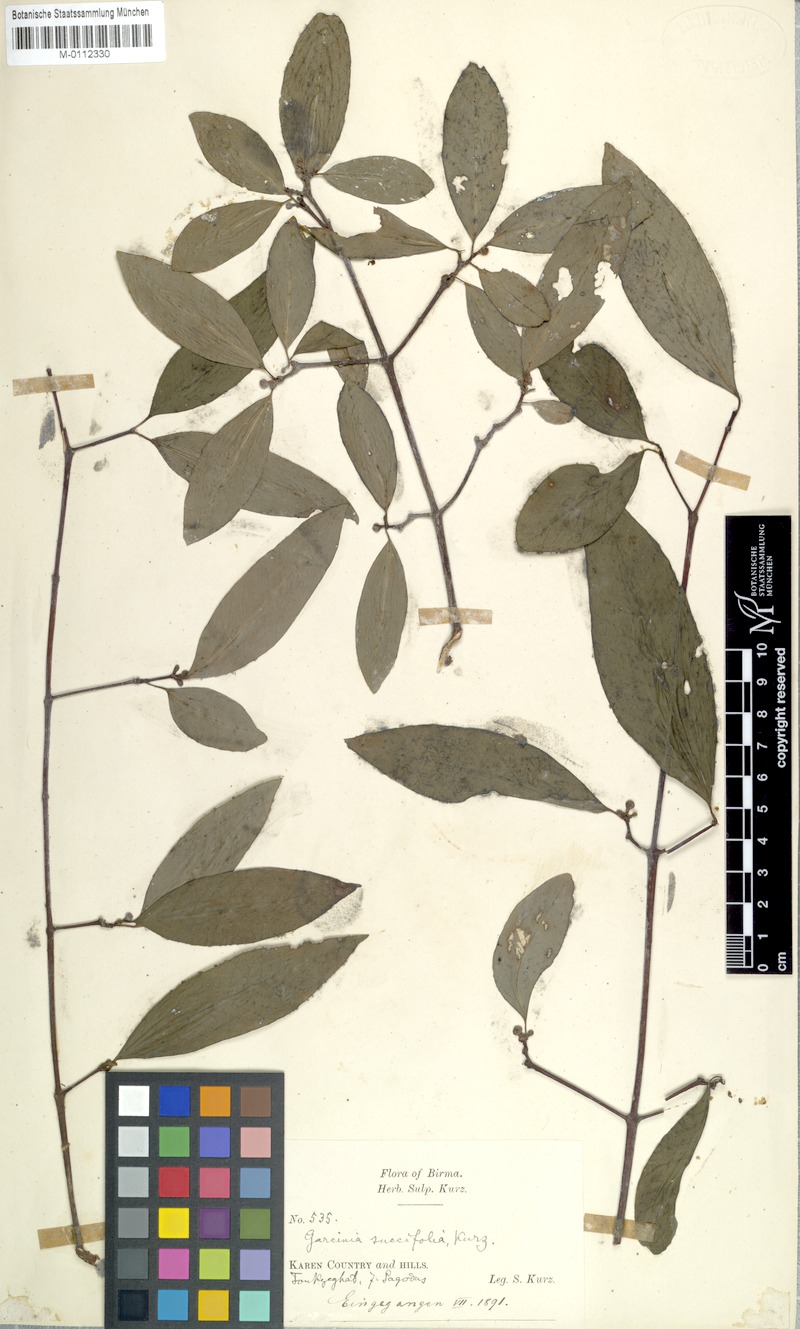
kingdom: Plantae
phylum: Tracheophyta
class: Magnoliopsida
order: Malpighiales
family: Clusiaceae
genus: Garcinia
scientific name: Garcinia succifolia
